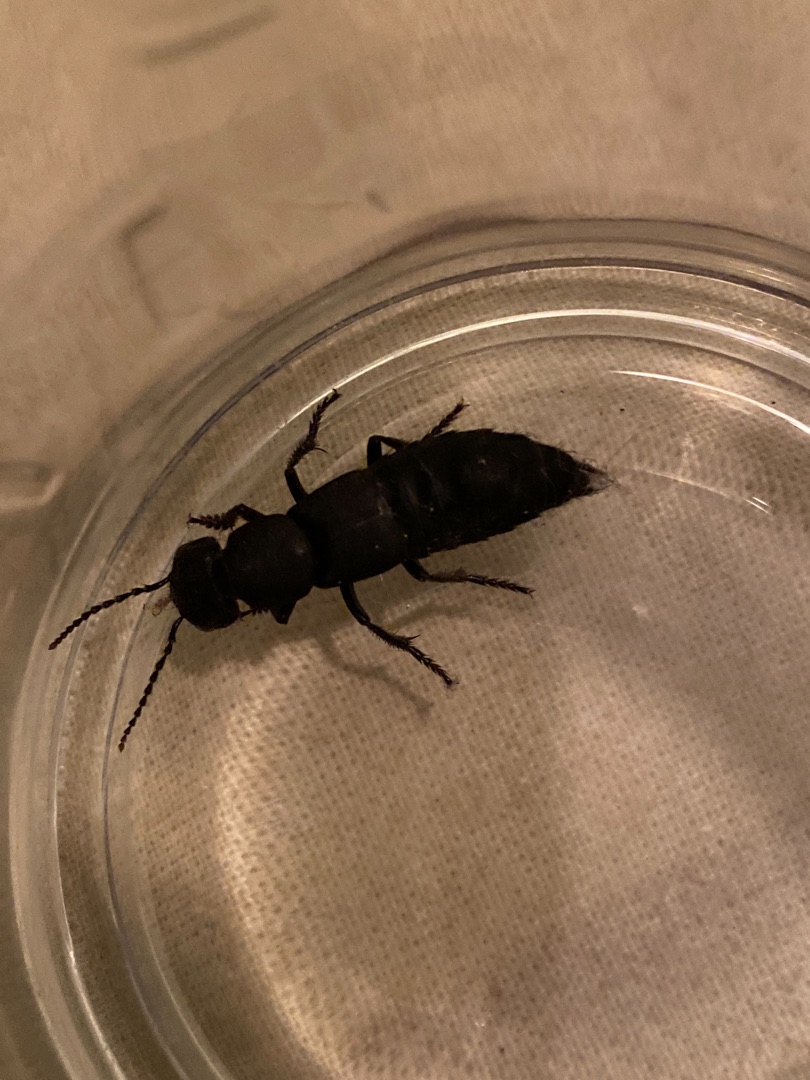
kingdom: Animalia
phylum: Arthropoda
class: Insecta
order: Coleoptera
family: Staphylinidae
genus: Ocypus
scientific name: Ocypus olens
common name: Stor rovbille
